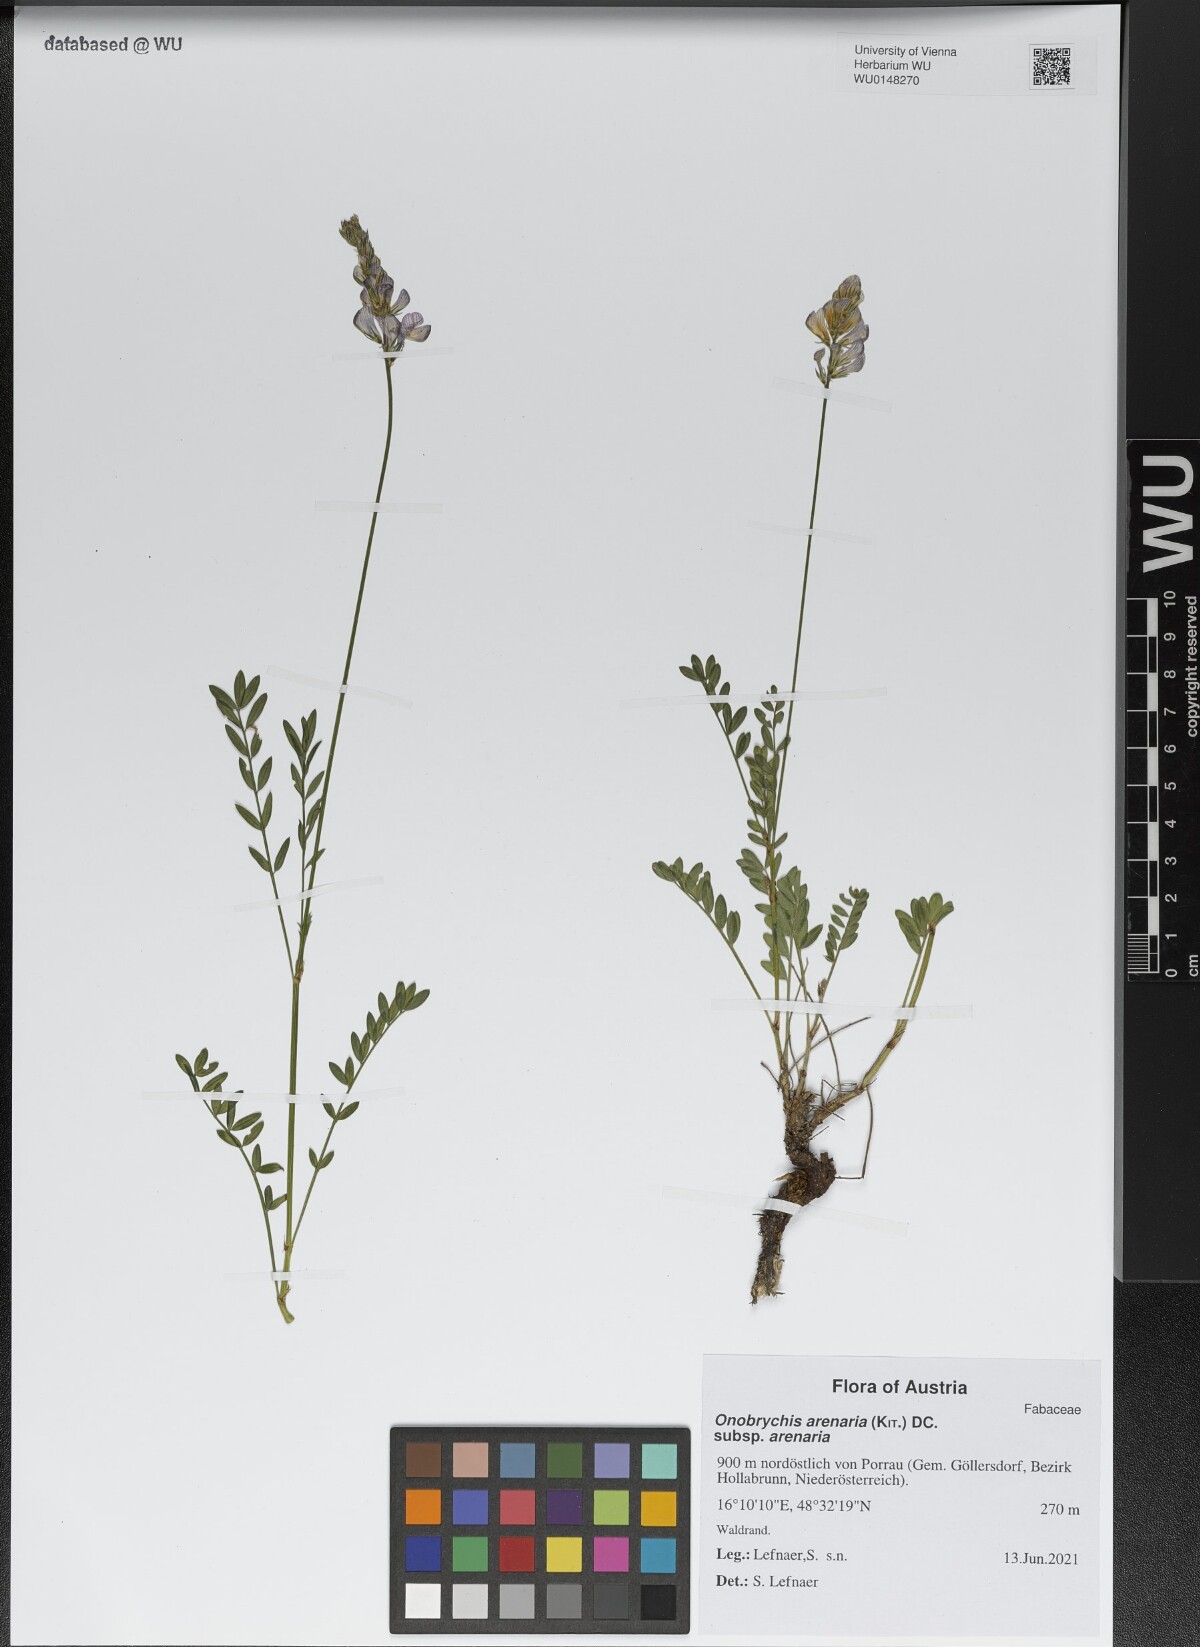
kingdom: Plantae
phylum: Tracheophyta
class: Magnoliopsida
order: Fabales
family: Fabaceae
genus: Onobrychis
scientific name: Onobrychis arenaria
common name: Sand esparcet
